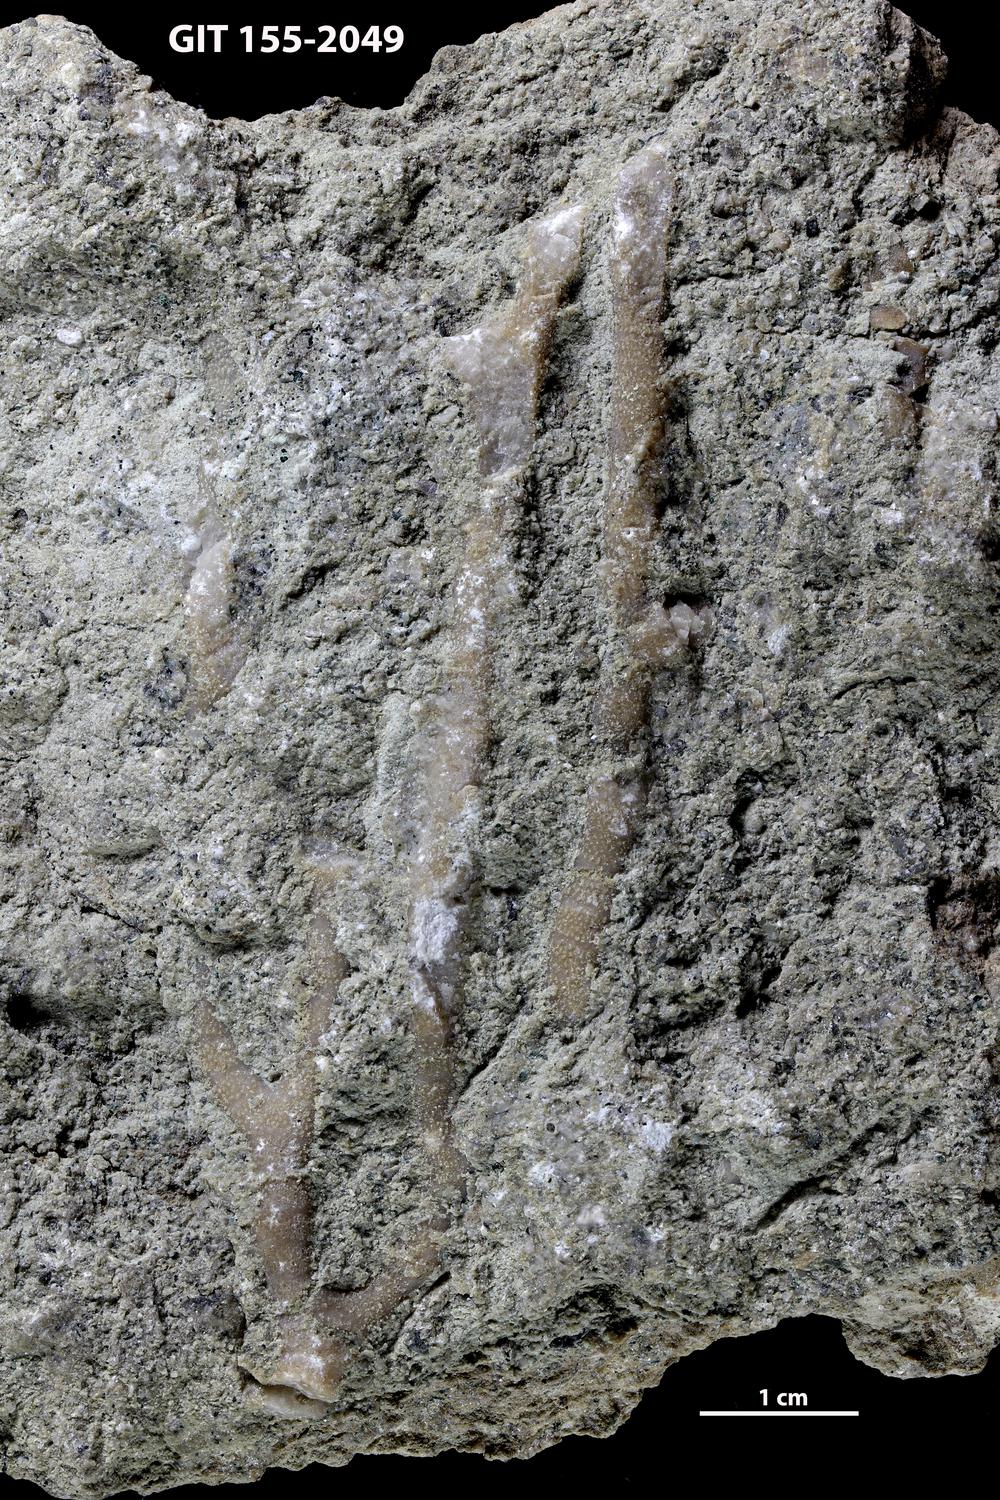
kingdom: Animalia
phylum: Bryozoa
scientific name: Bryozoa
